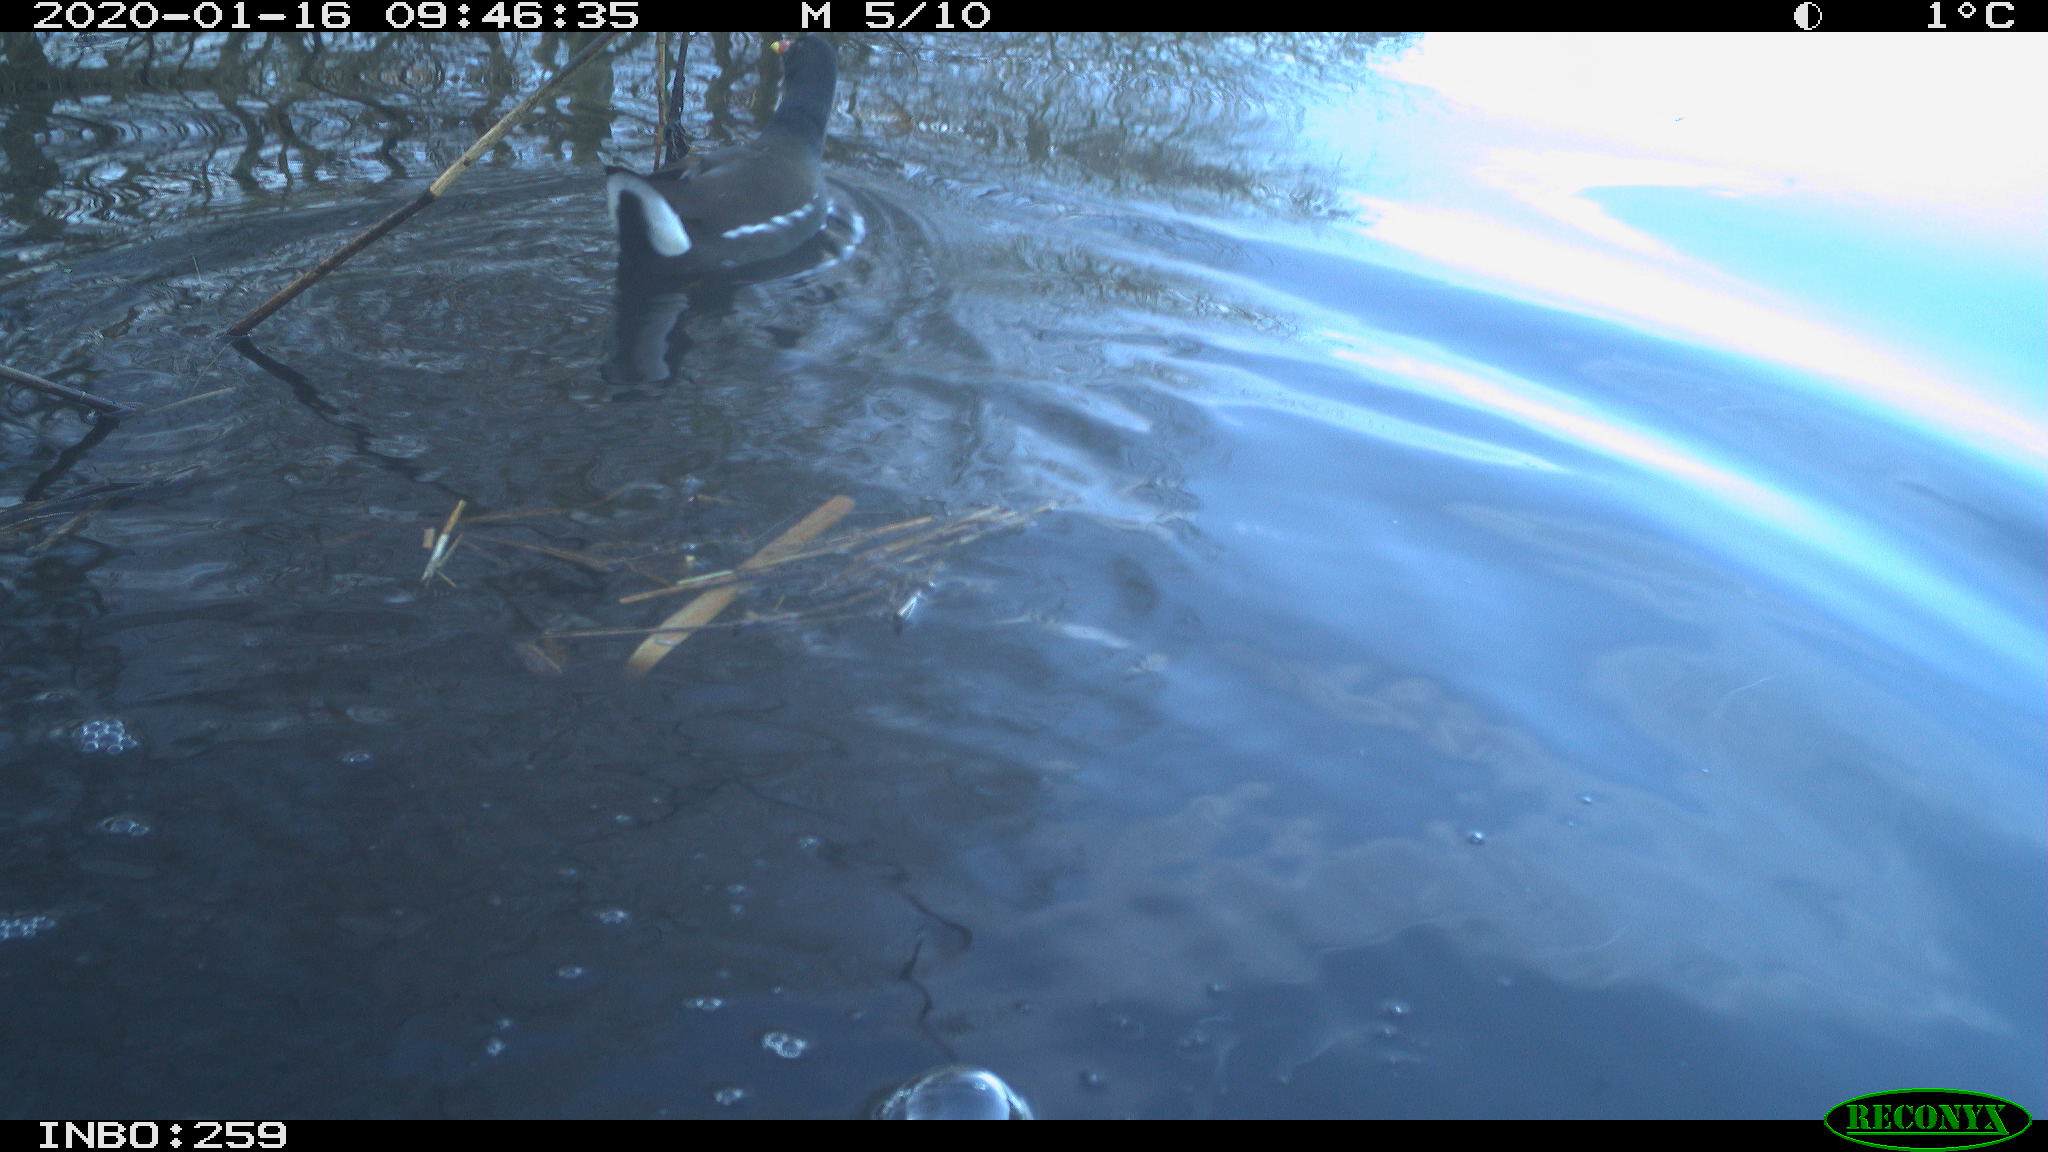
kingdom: Animalia
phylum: Chordata
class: Aves
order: Gruiformes
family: Rallidae
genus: Gallinula
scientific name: Gallinula chloropus
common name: Common moorhen
